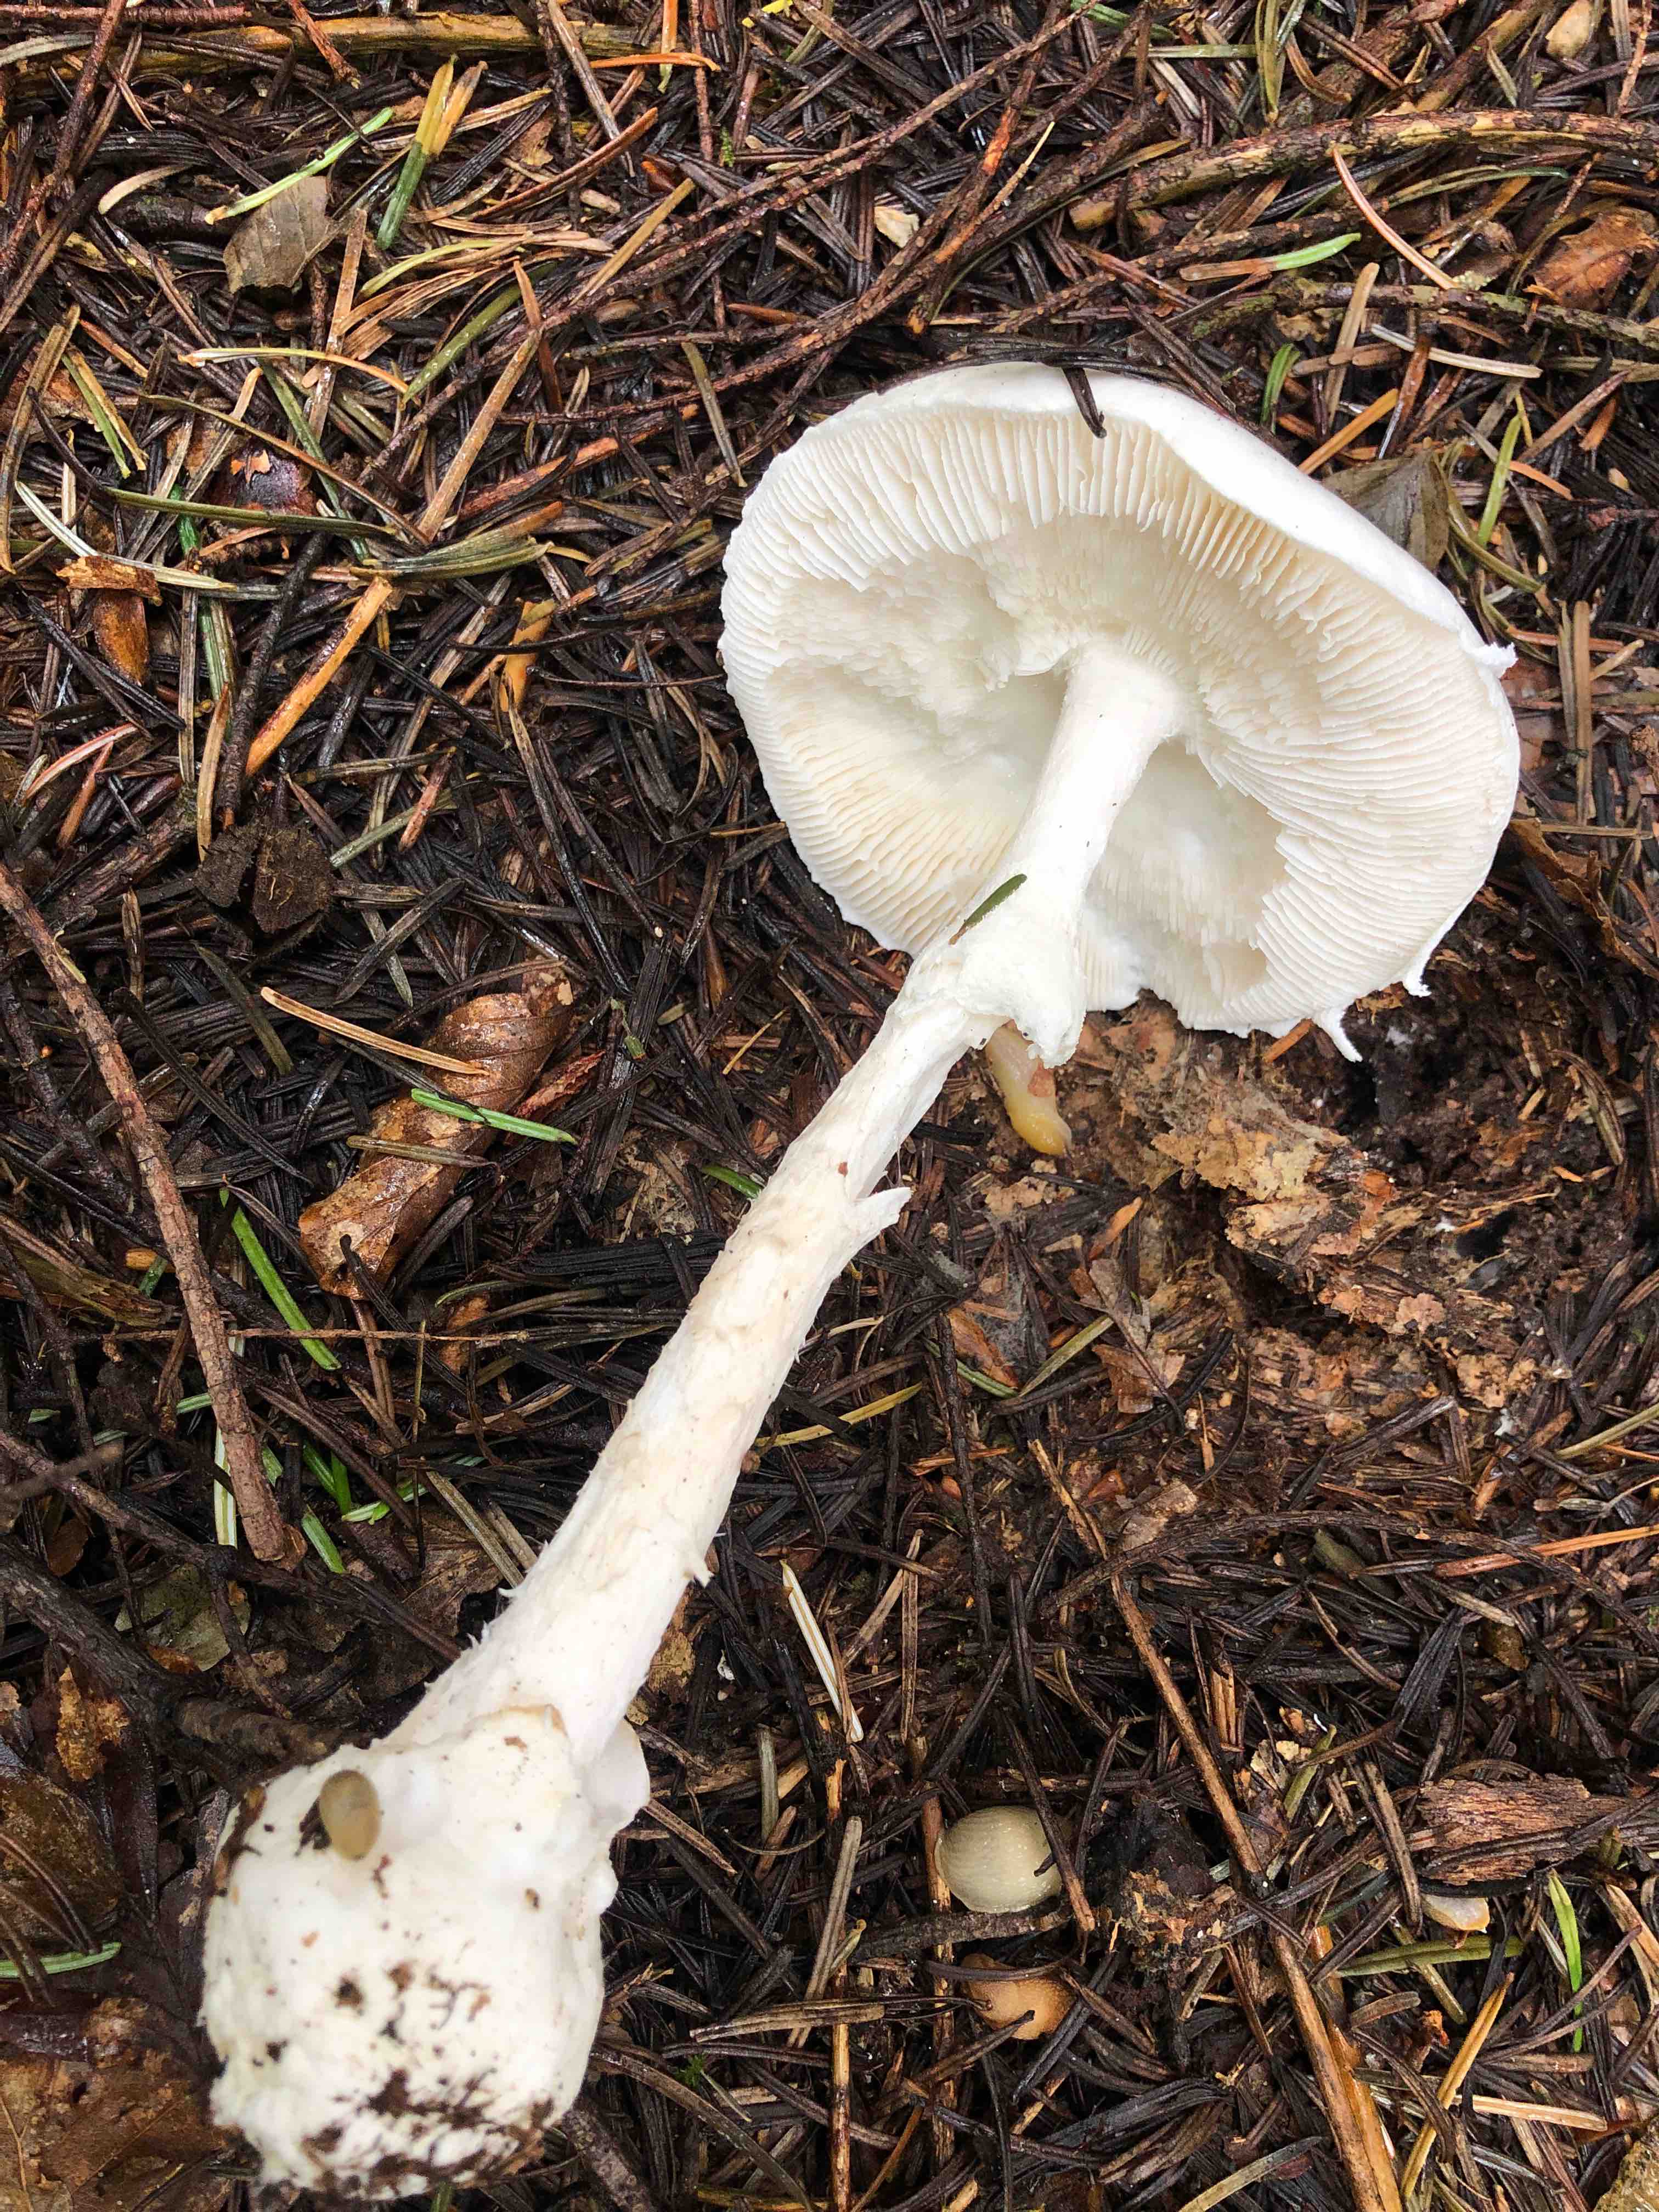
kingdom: Fungi
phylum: Basidiomycota
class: Agaricomycetes
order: Agaricales
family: Amanitaceae
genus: Amanita
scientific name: Amanita virosa
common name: snehvid fluesvamp
